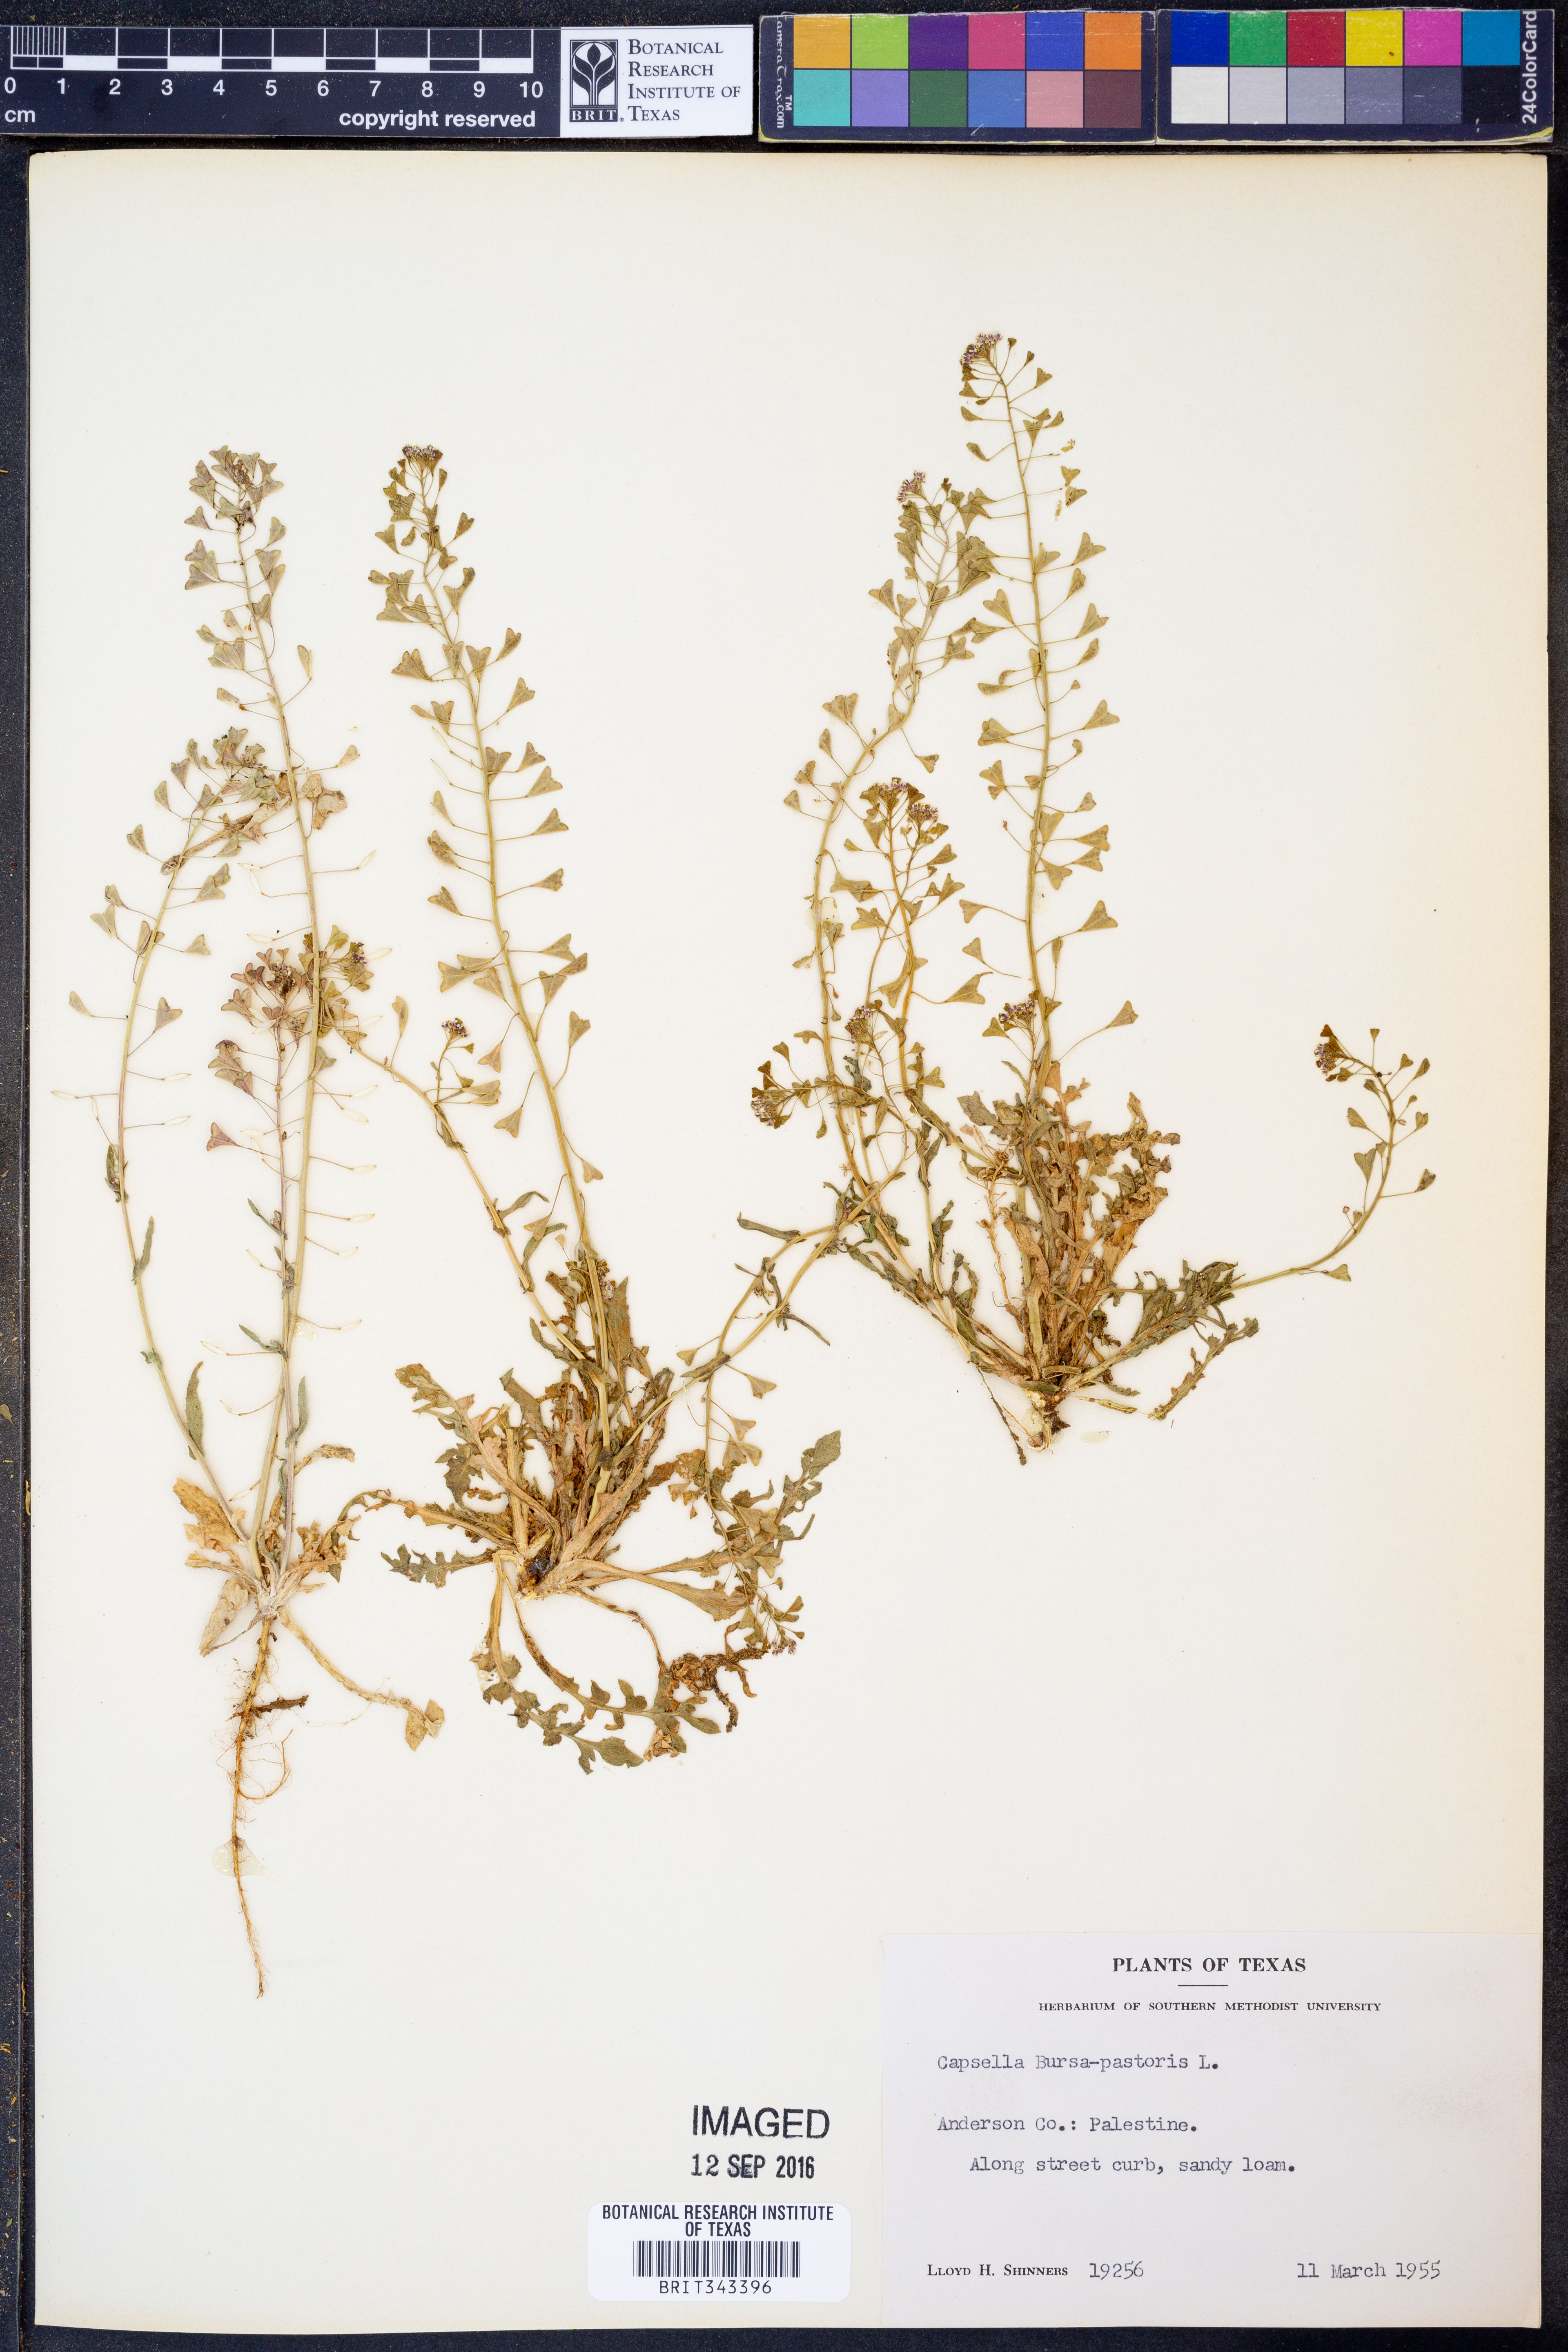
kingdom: Plantae
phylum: Tracheophyta
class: Magnoliopsida
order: Brassicales
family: Brassicaceae
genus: Capsella
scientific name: Capsella bursa-pastoris
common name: Shepherd's purse
